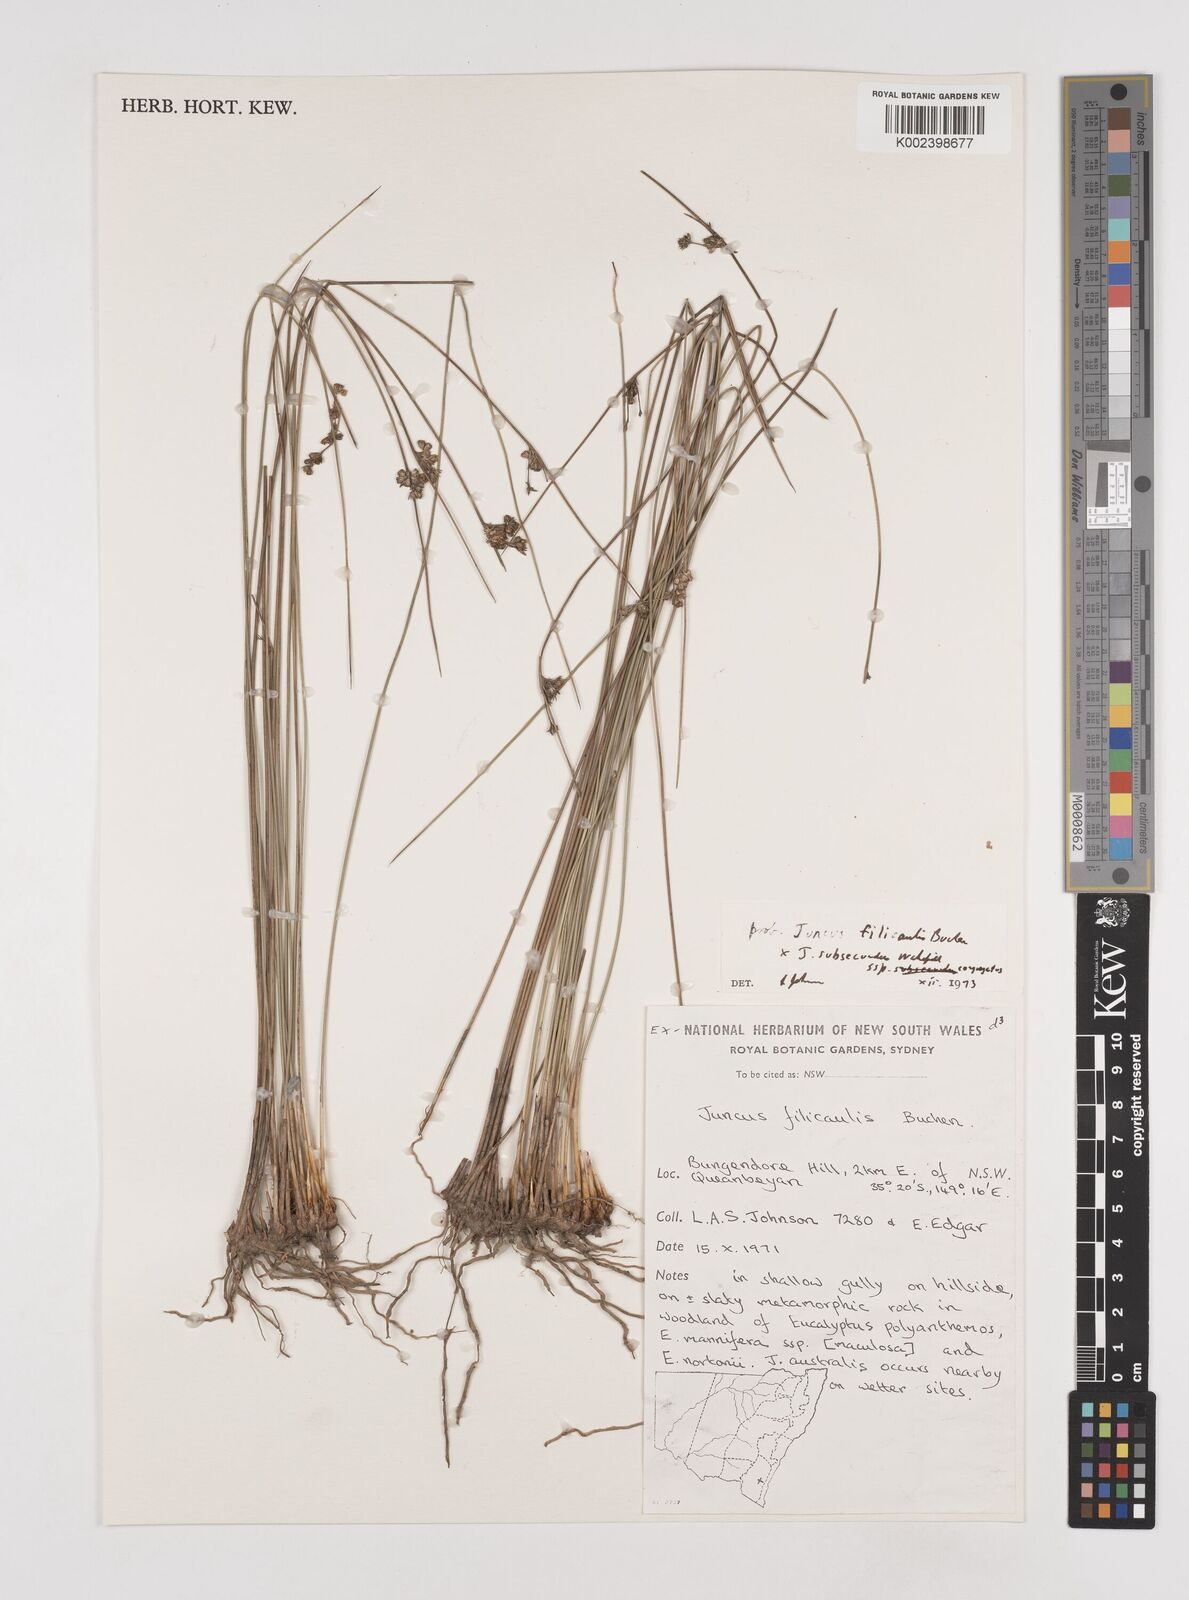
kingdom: Plantae
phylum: Tracheophyta
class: Liliopsida
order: Poales
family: Juncaceae
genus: Juncus
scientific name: Juncus filicaulis
